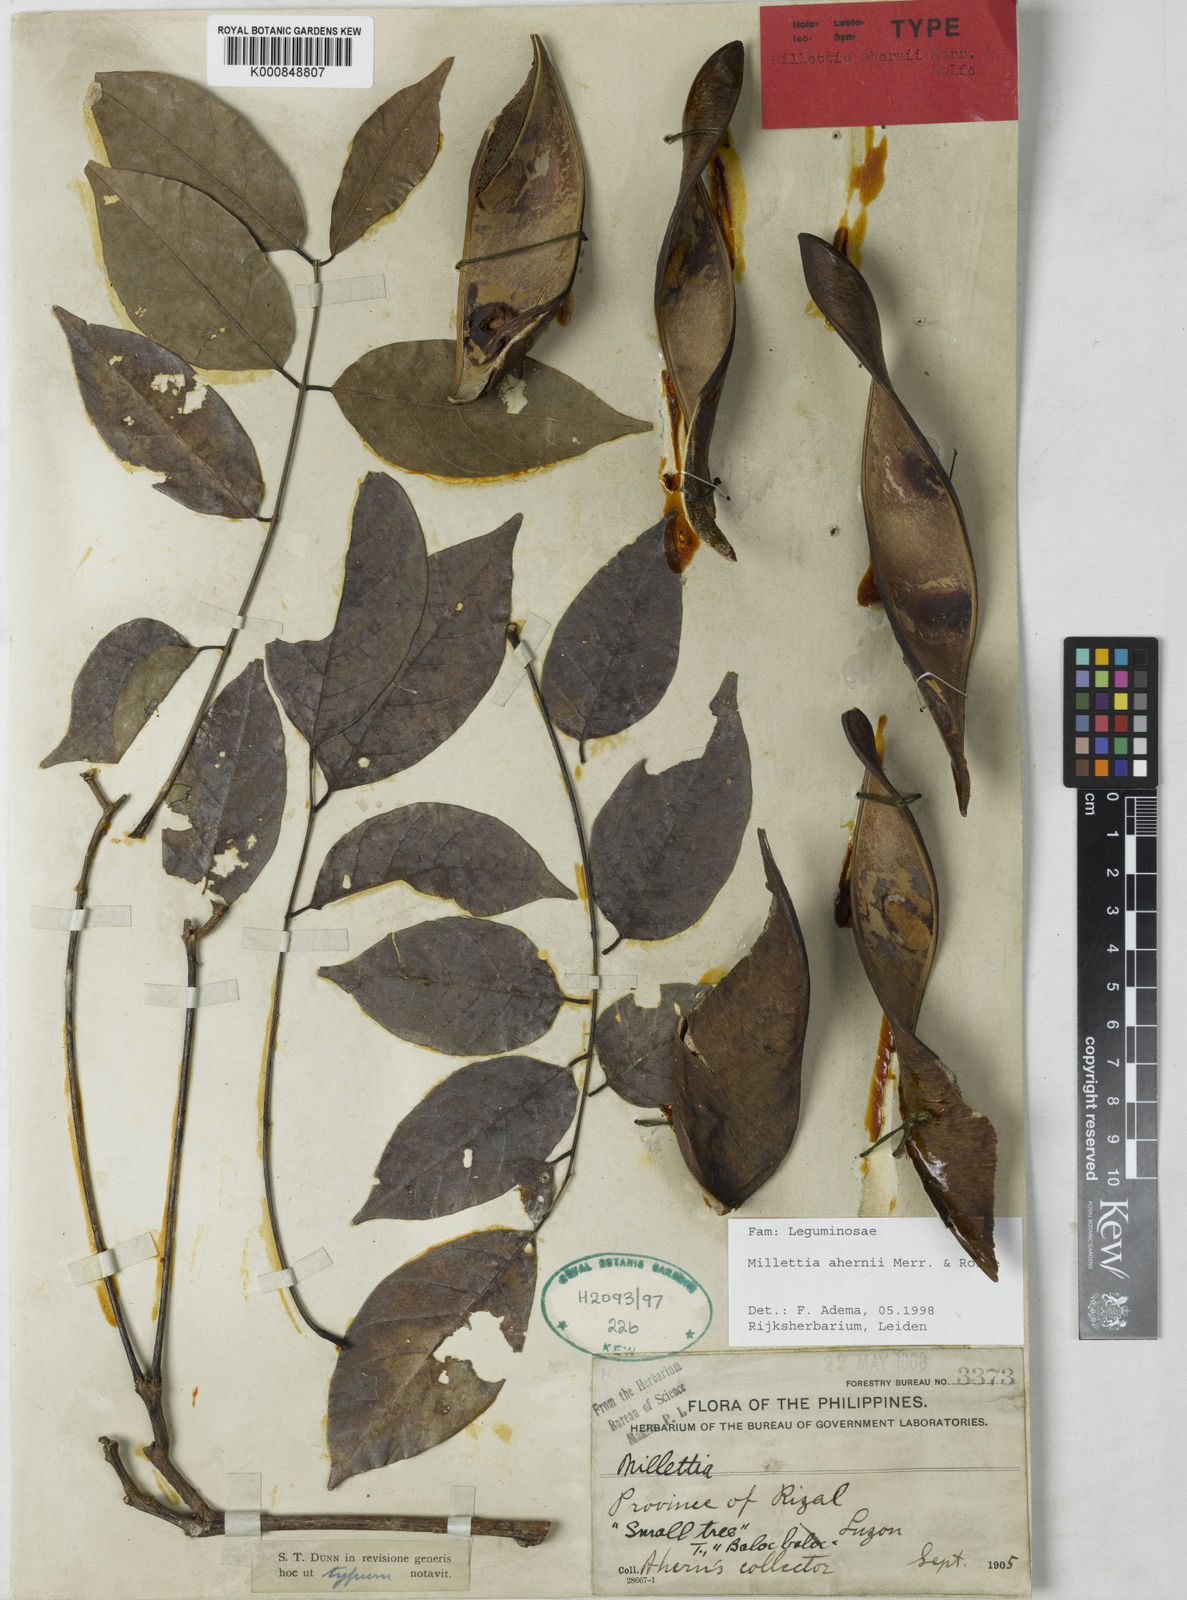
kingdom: Plantae
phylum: Tracheophyta
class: Magnoliopsida
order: Fabales
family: Fabaceae
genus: Millettia
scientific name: Millettia ahernii
